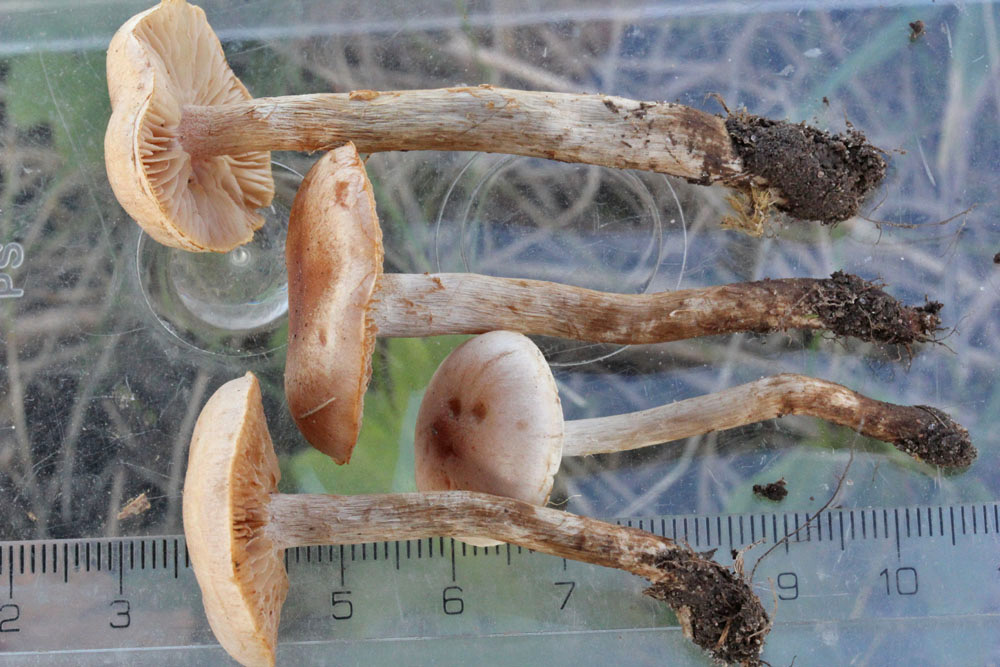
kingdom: Fungi
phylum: Basidiomycota
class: Agaricomycetes
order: Agaricales
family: Hymenogastraceae
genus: Hebeloma
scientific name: Hebeloma mesophaeum
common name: lerbrun tåreblad
